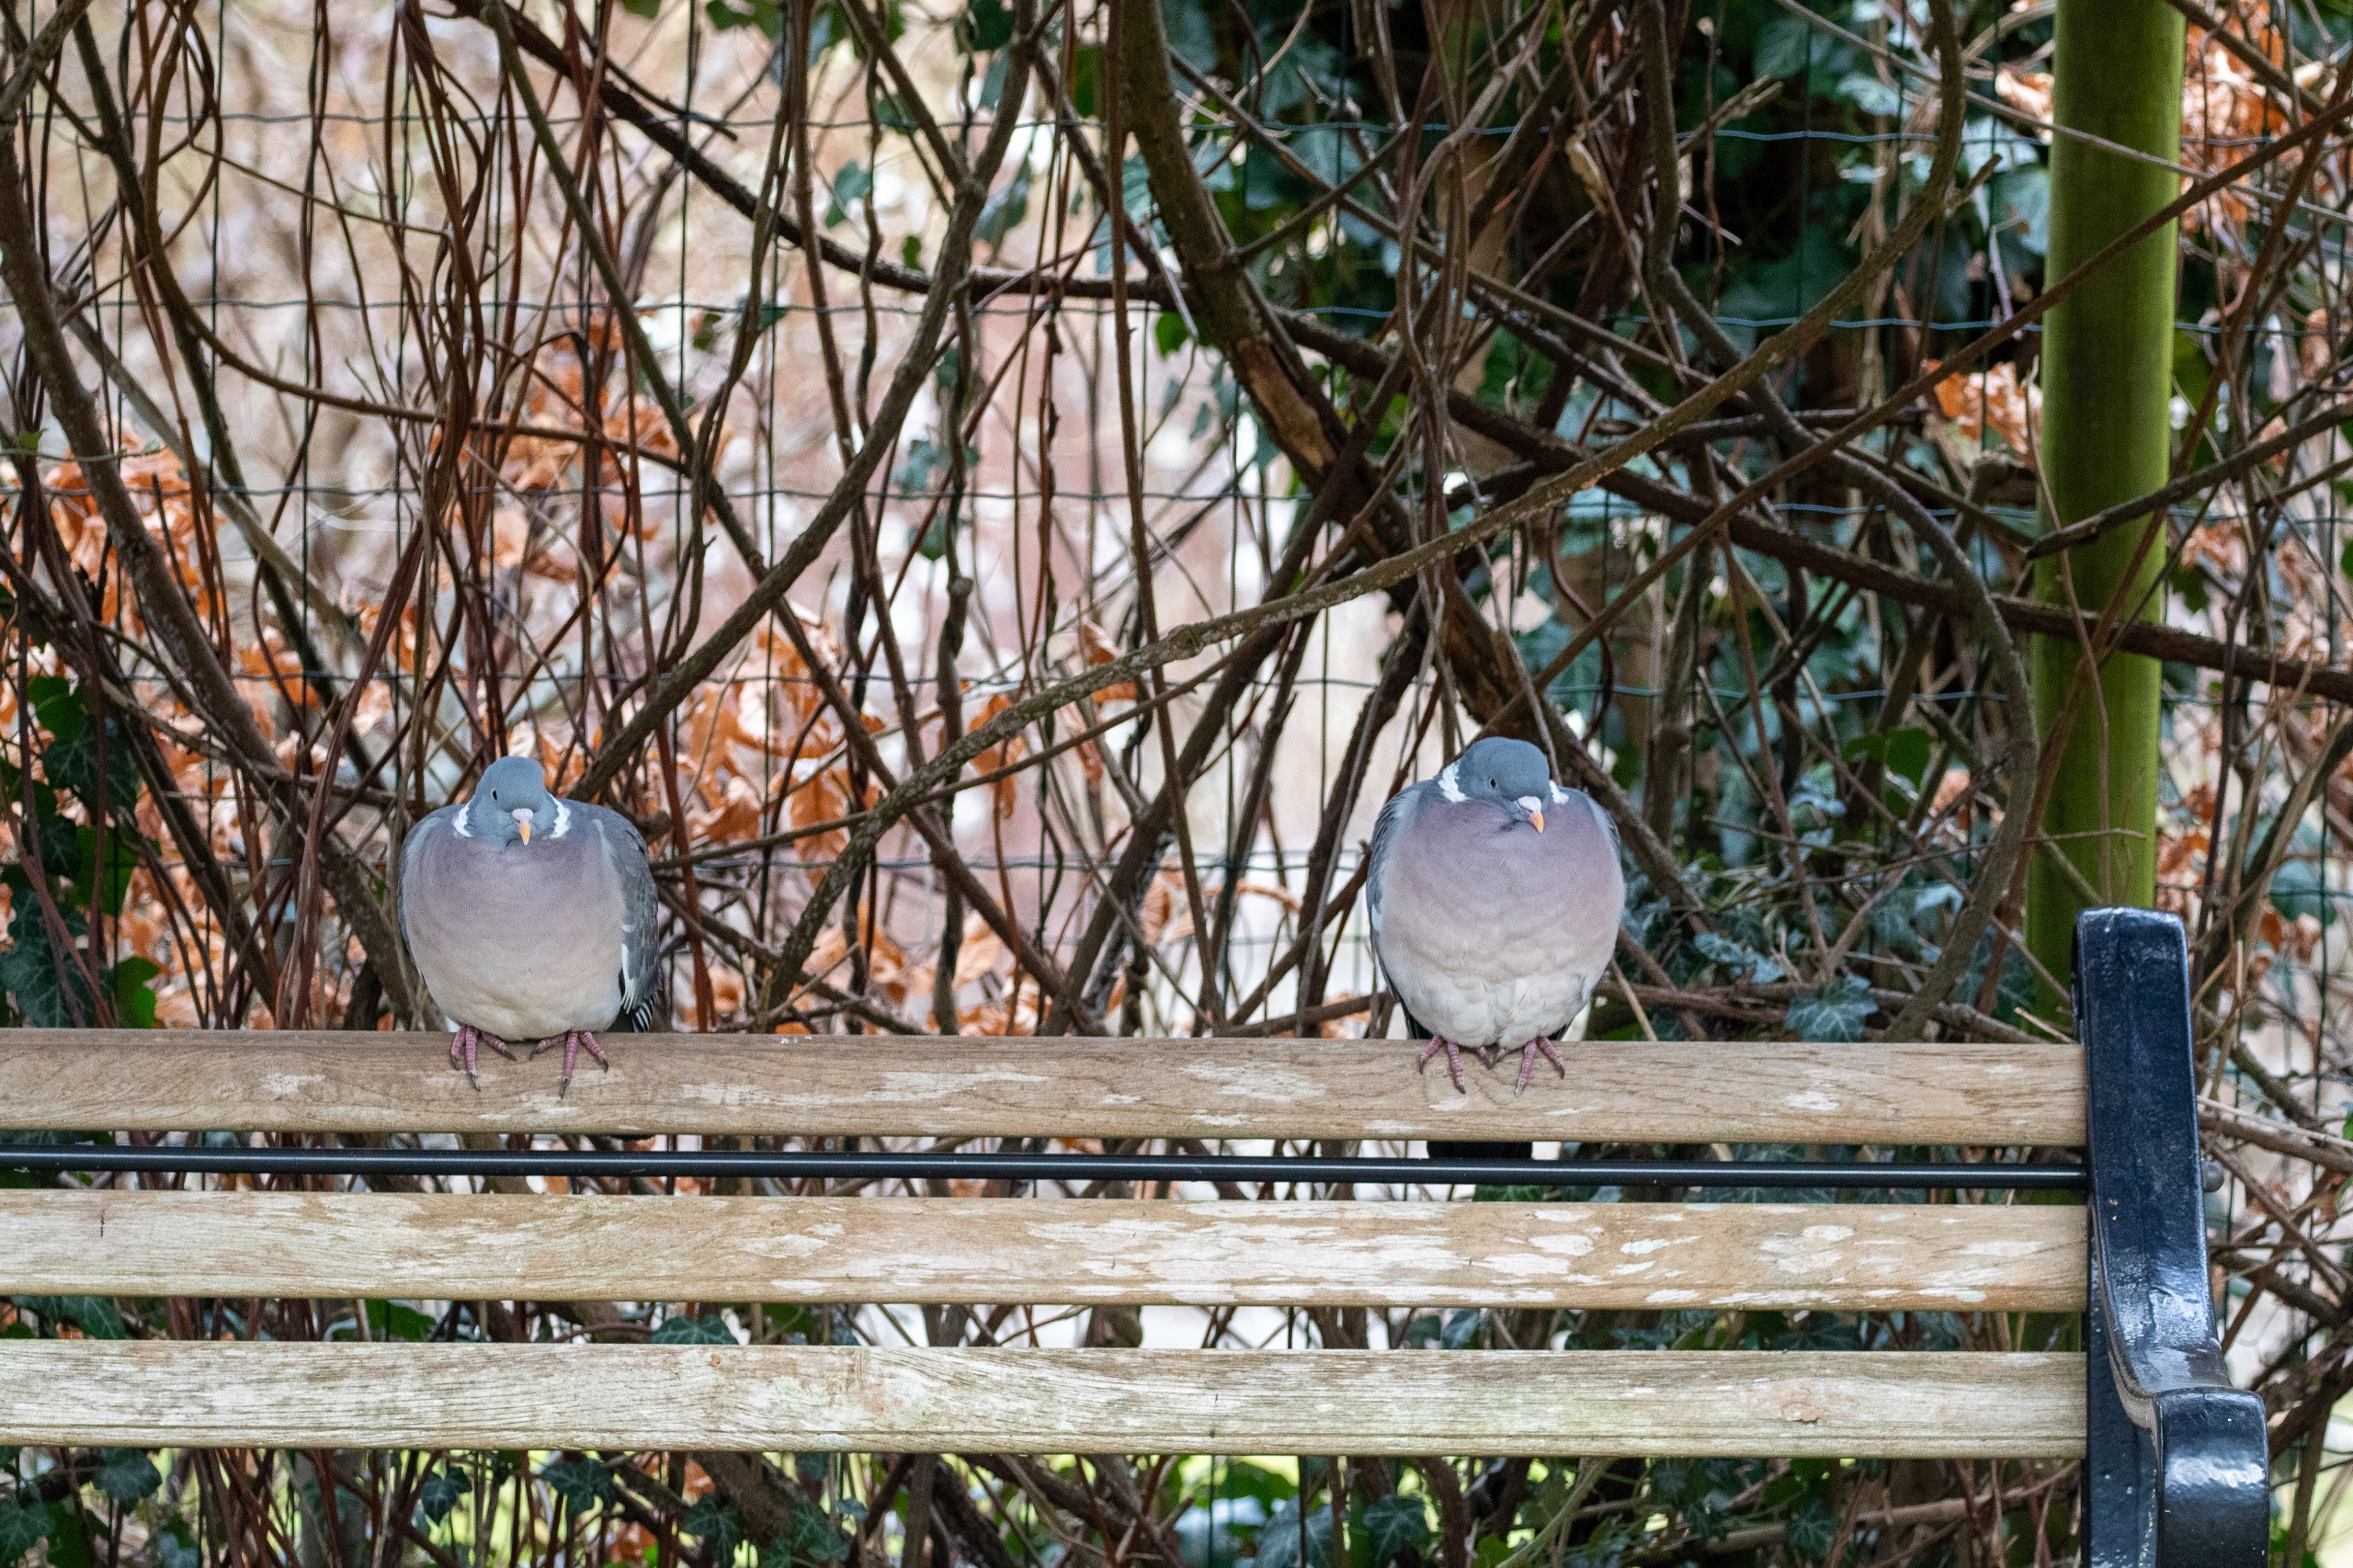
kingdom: Animalia
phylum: Chordata
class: Aves
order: Columbiformes
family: Columbidae
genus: Columba
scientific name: Columba palumbus
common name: Ringdue
